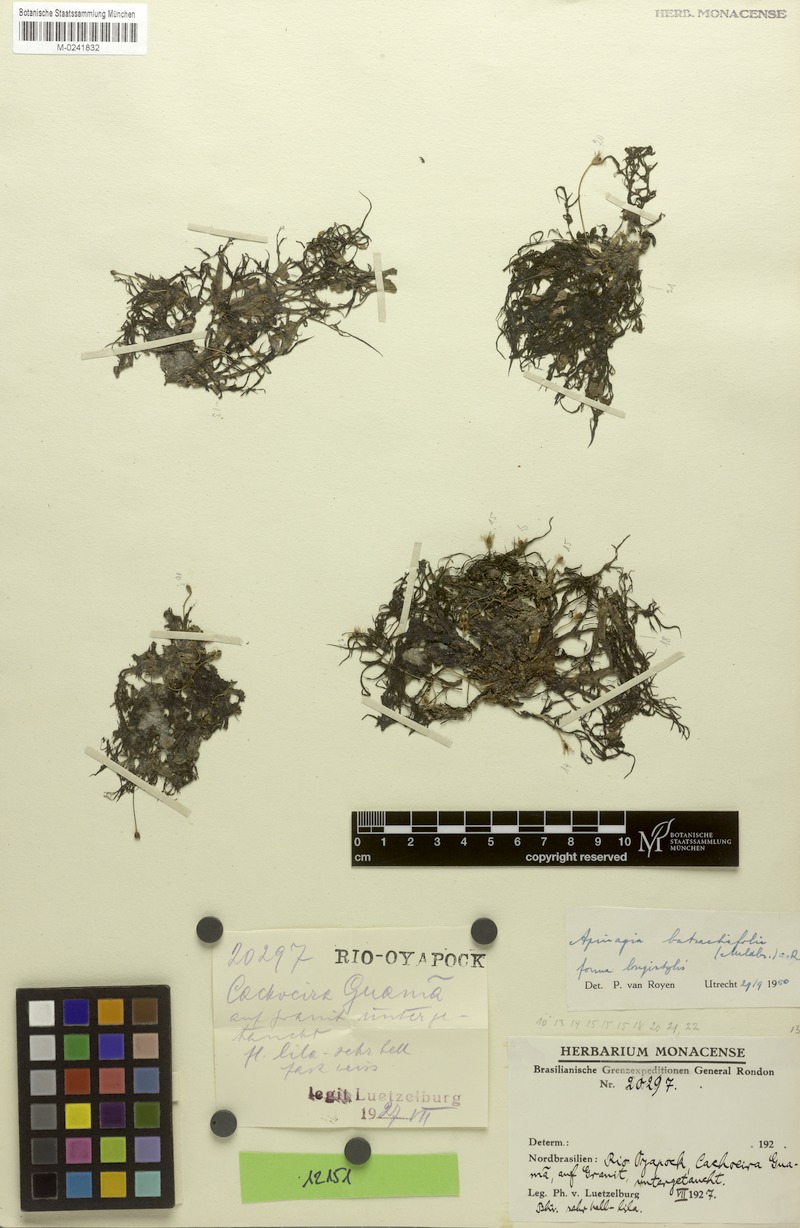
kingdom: Plantae
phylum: Tracheophyta
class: Magnoliopsida
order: Malpighiales
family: Podostemaceae
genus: Apinagia
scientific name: Apinagia batrachifolia
